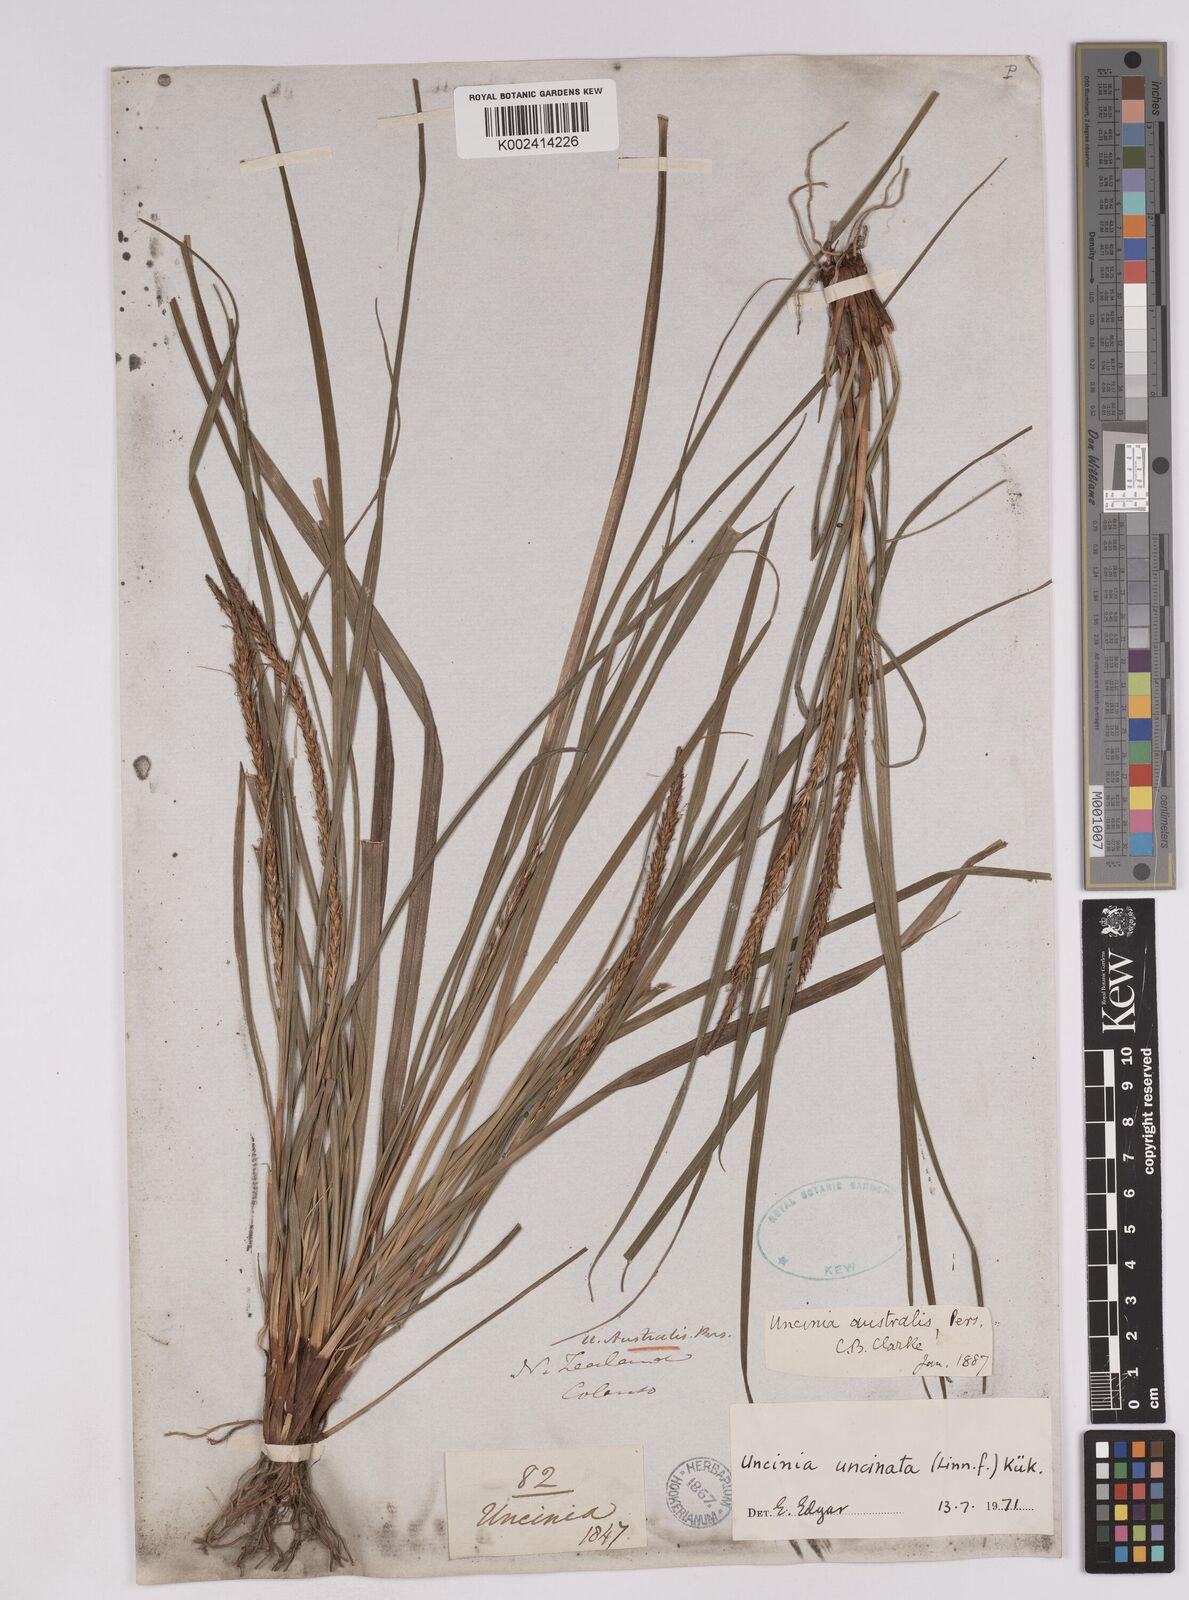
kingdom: Plantae
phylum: Tracheophyta
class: Liliopsida
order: Poales
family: Cyperaceae
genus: Carex
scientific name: Carex uncinata
